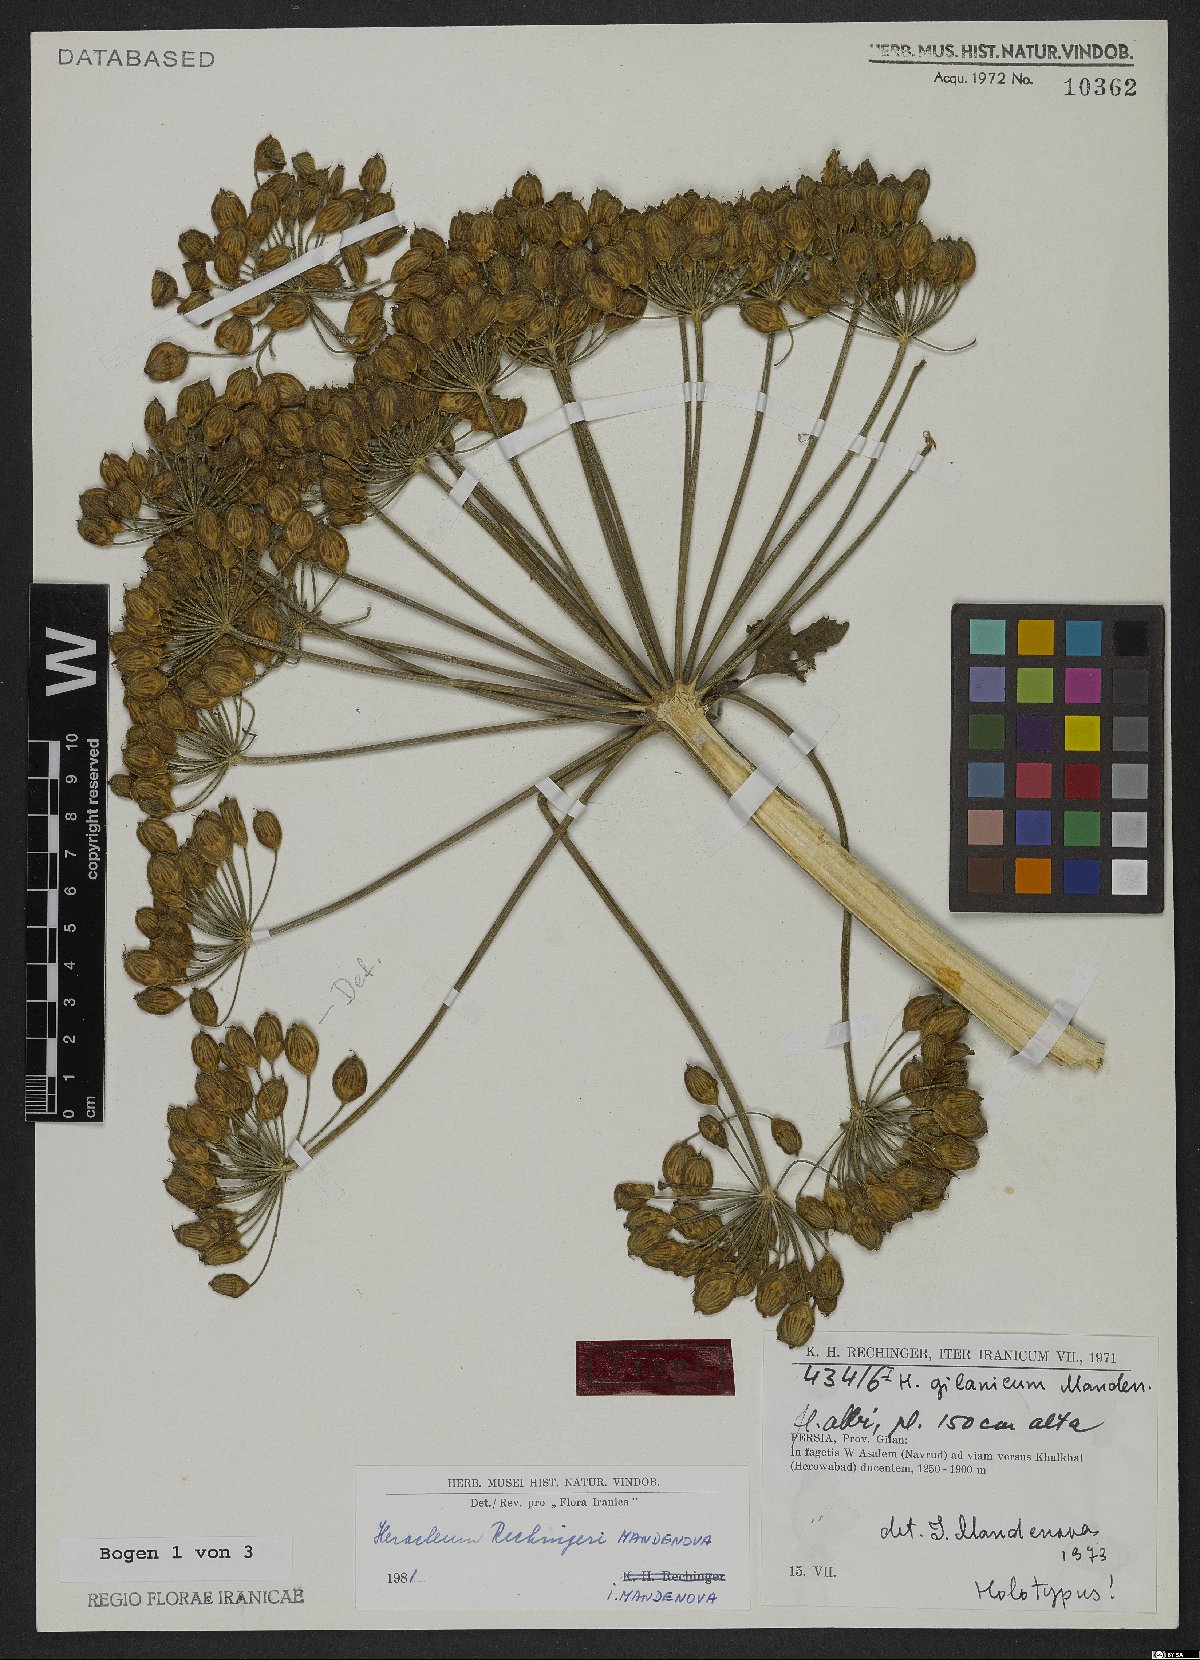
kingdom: Plantae
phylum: Tracheophyta
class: Magnoliopsida
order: Apiales
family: Apiaceae
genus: Heracleum
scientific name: Heracleum rechingeri
